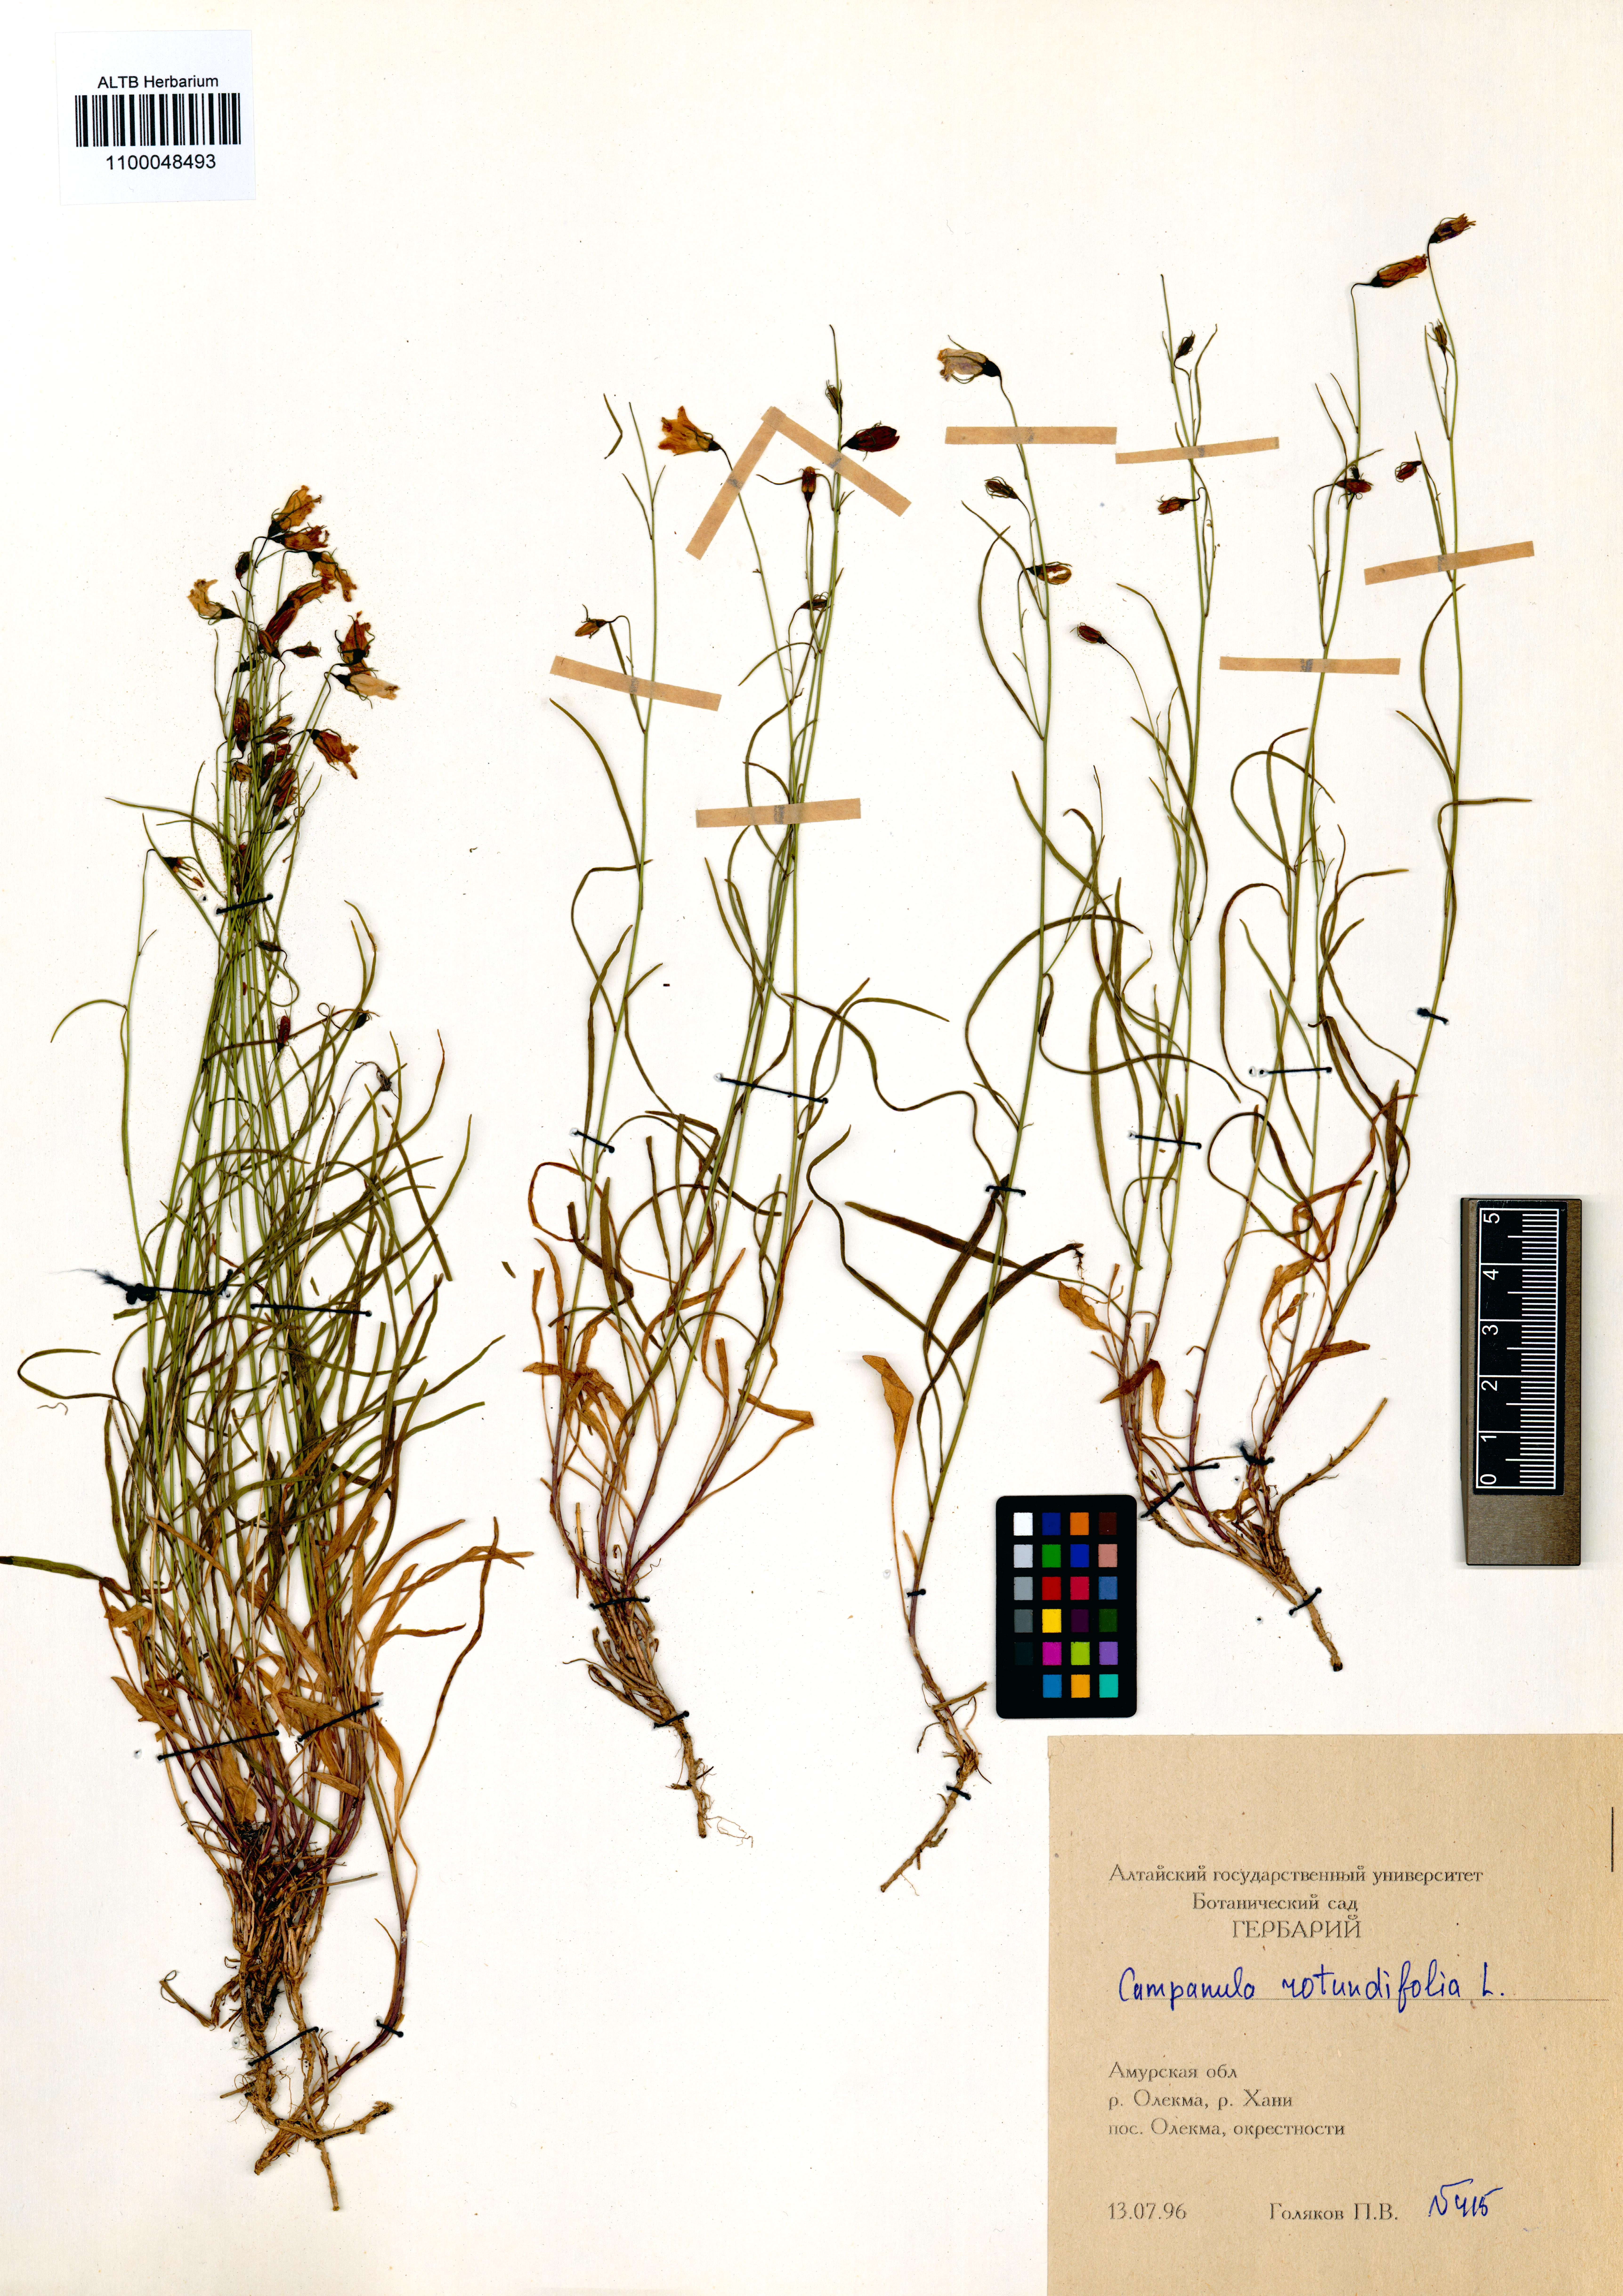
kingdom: Plantae
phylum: Tracheophyta
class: Magnoliopsida
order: Asterales
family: Campanulaceae
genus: Campanula
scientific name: Campanula rotundifolia
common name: Harebell
